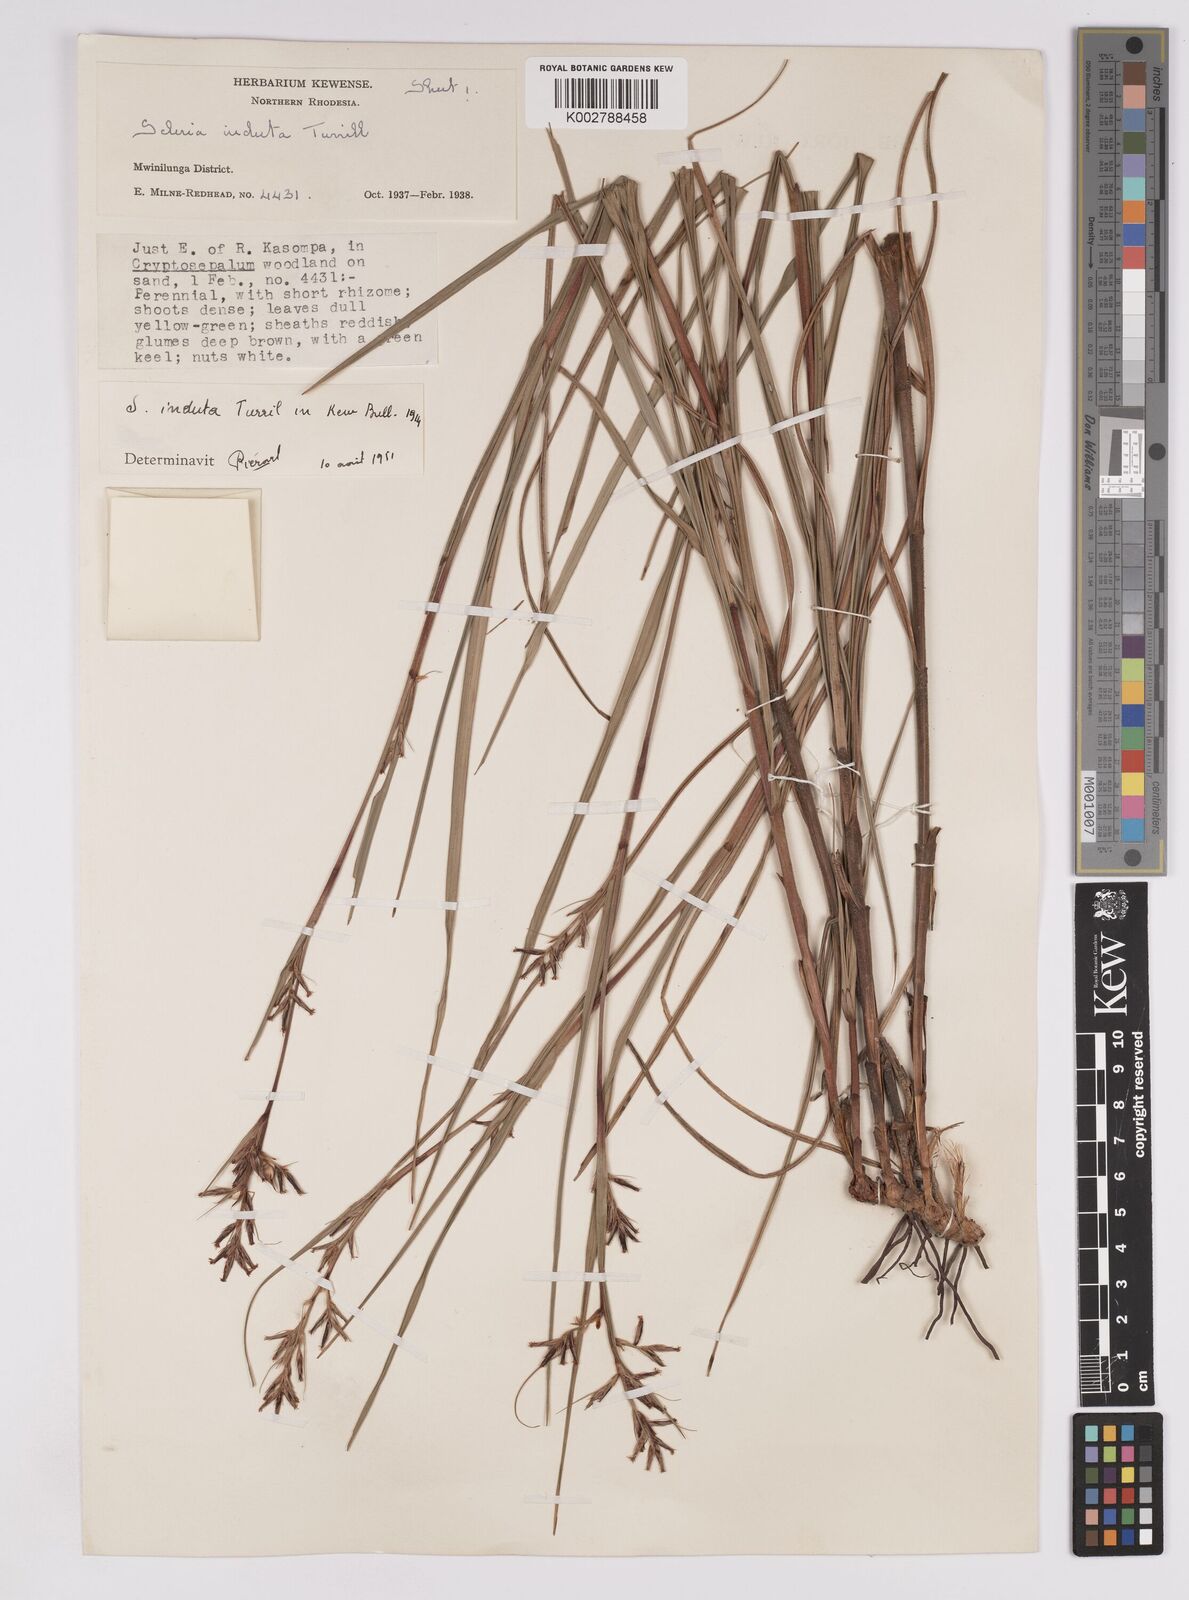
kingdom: Plantae
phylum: Tracheophyta
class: Liliopsida
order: Poales
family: Cyperaceae
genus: Scleria
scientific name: Scleria induta
